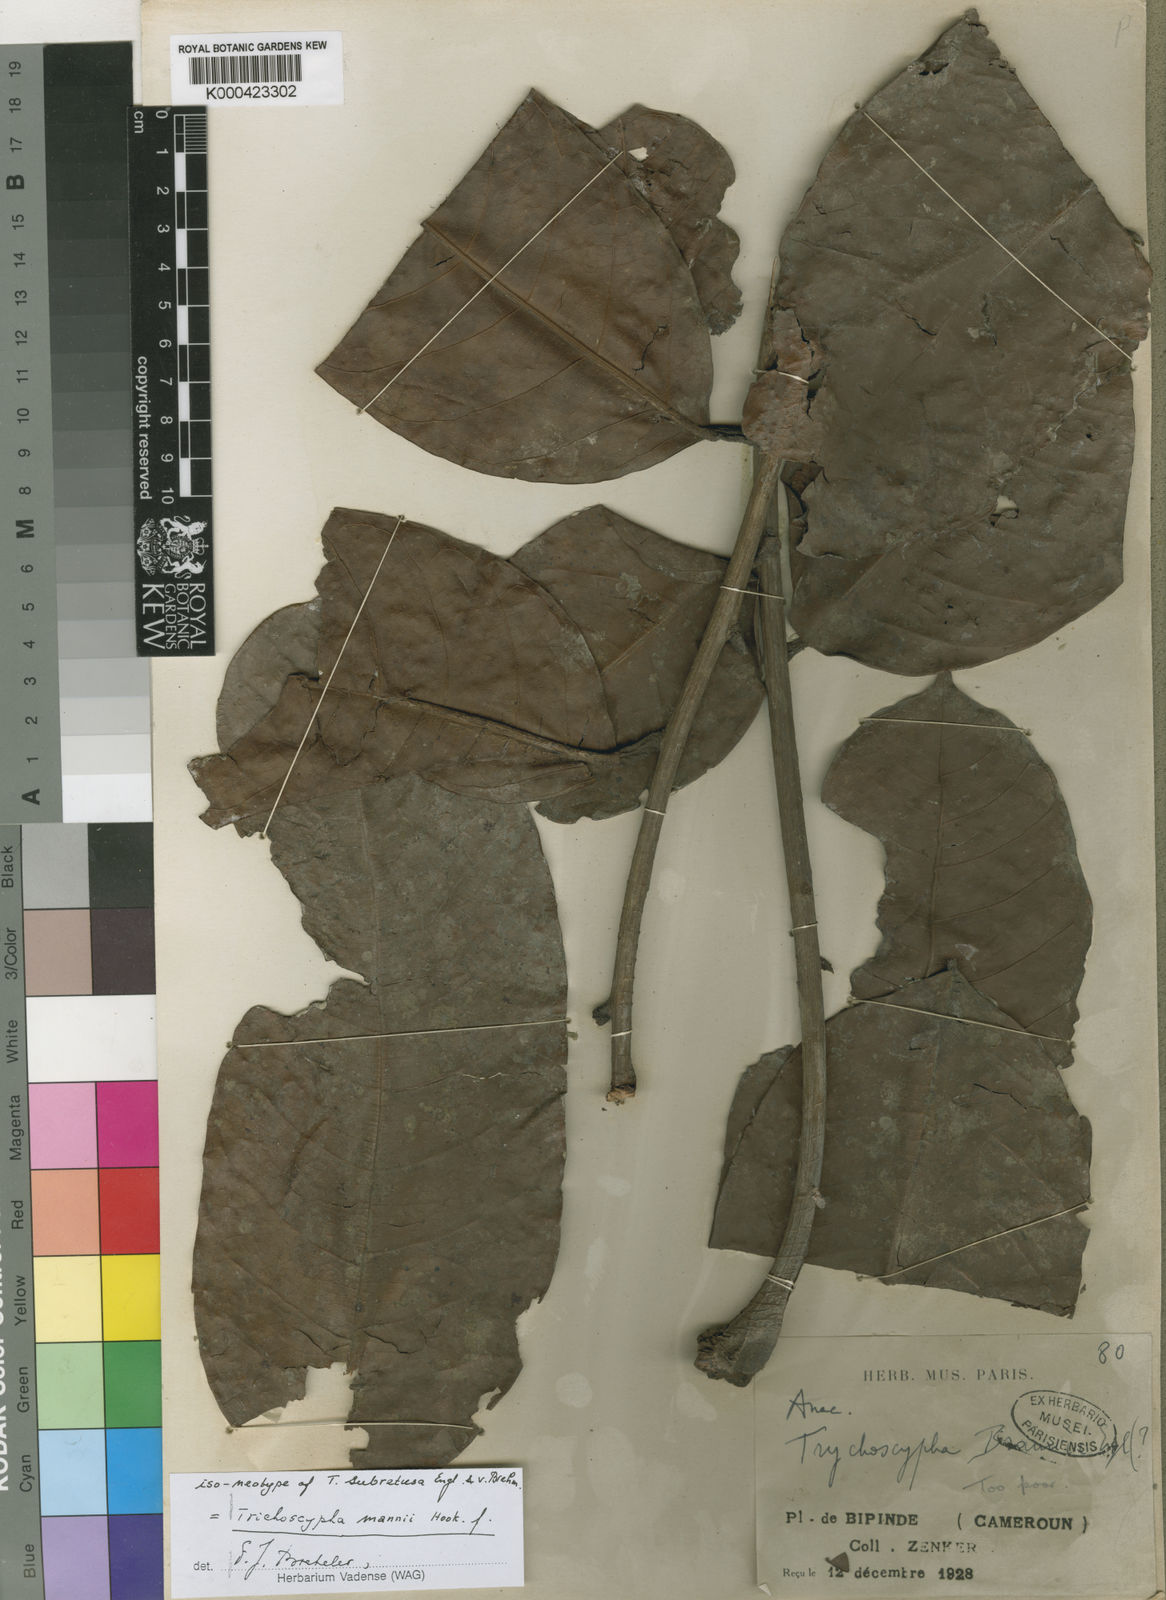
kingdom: Plantae
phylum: Tracheophyta
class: Magnoliopsida
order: Sapindales
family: Anacardiaceae
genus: Trichoscypha
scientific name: Trichoscypha mannii
